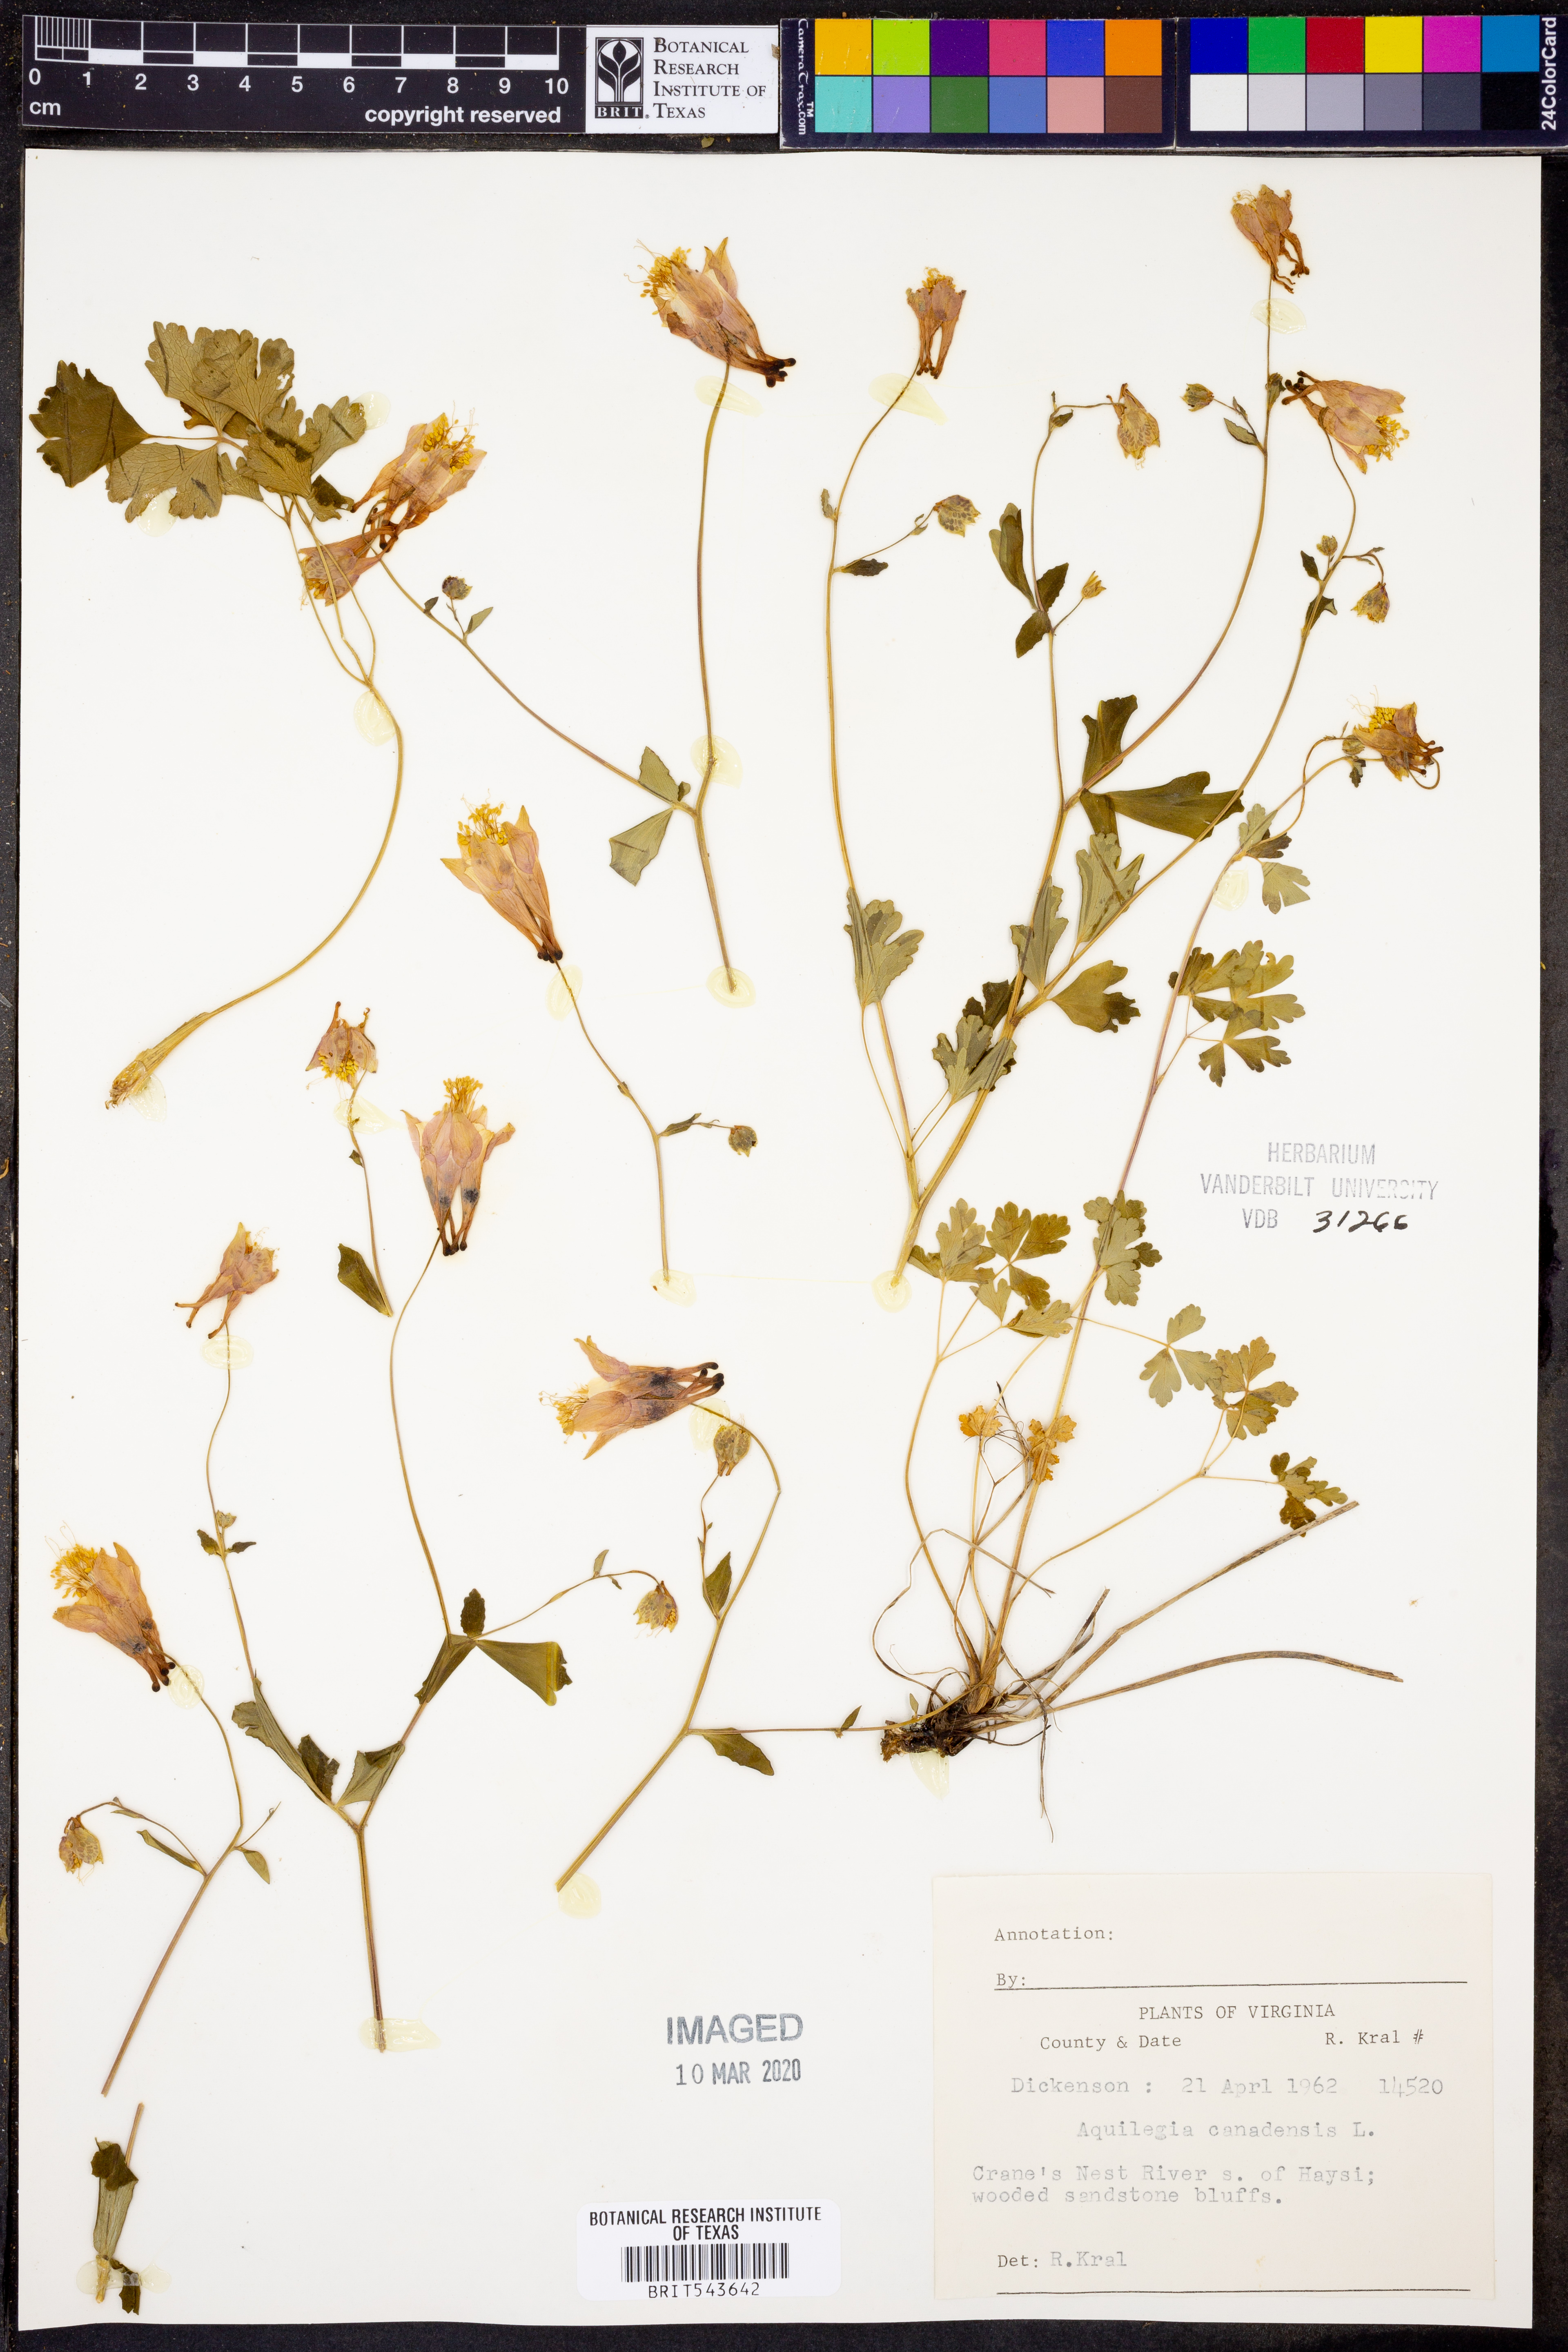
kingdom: Plantae
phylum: Tracheophyta
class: Magnoliopsida
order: Ranunculales
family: Ranunculaceae
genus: Aquilegia
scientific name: Aquilegia canadensis
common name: American columbine
